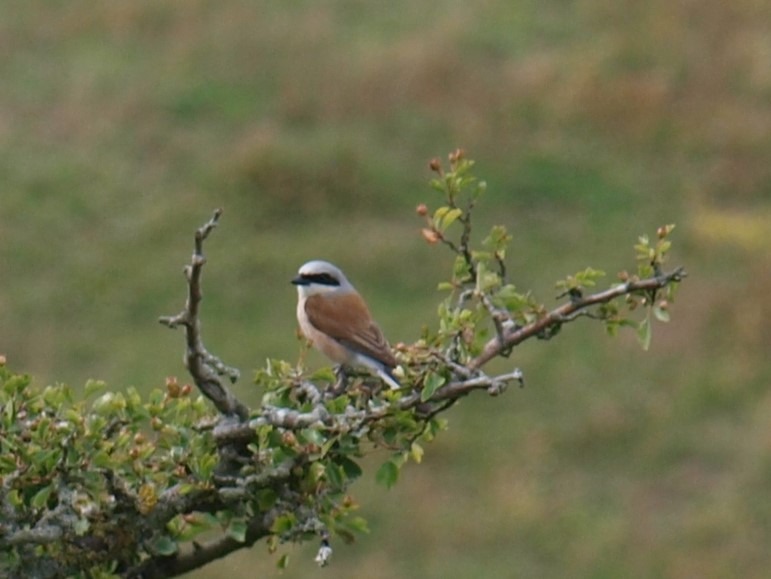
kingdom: Animalia
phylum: Chordata
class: Aves
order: Passeriformes
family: Laniidae
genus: Lanius
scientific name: Lanius collurio
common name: Rødrygget tornskade
